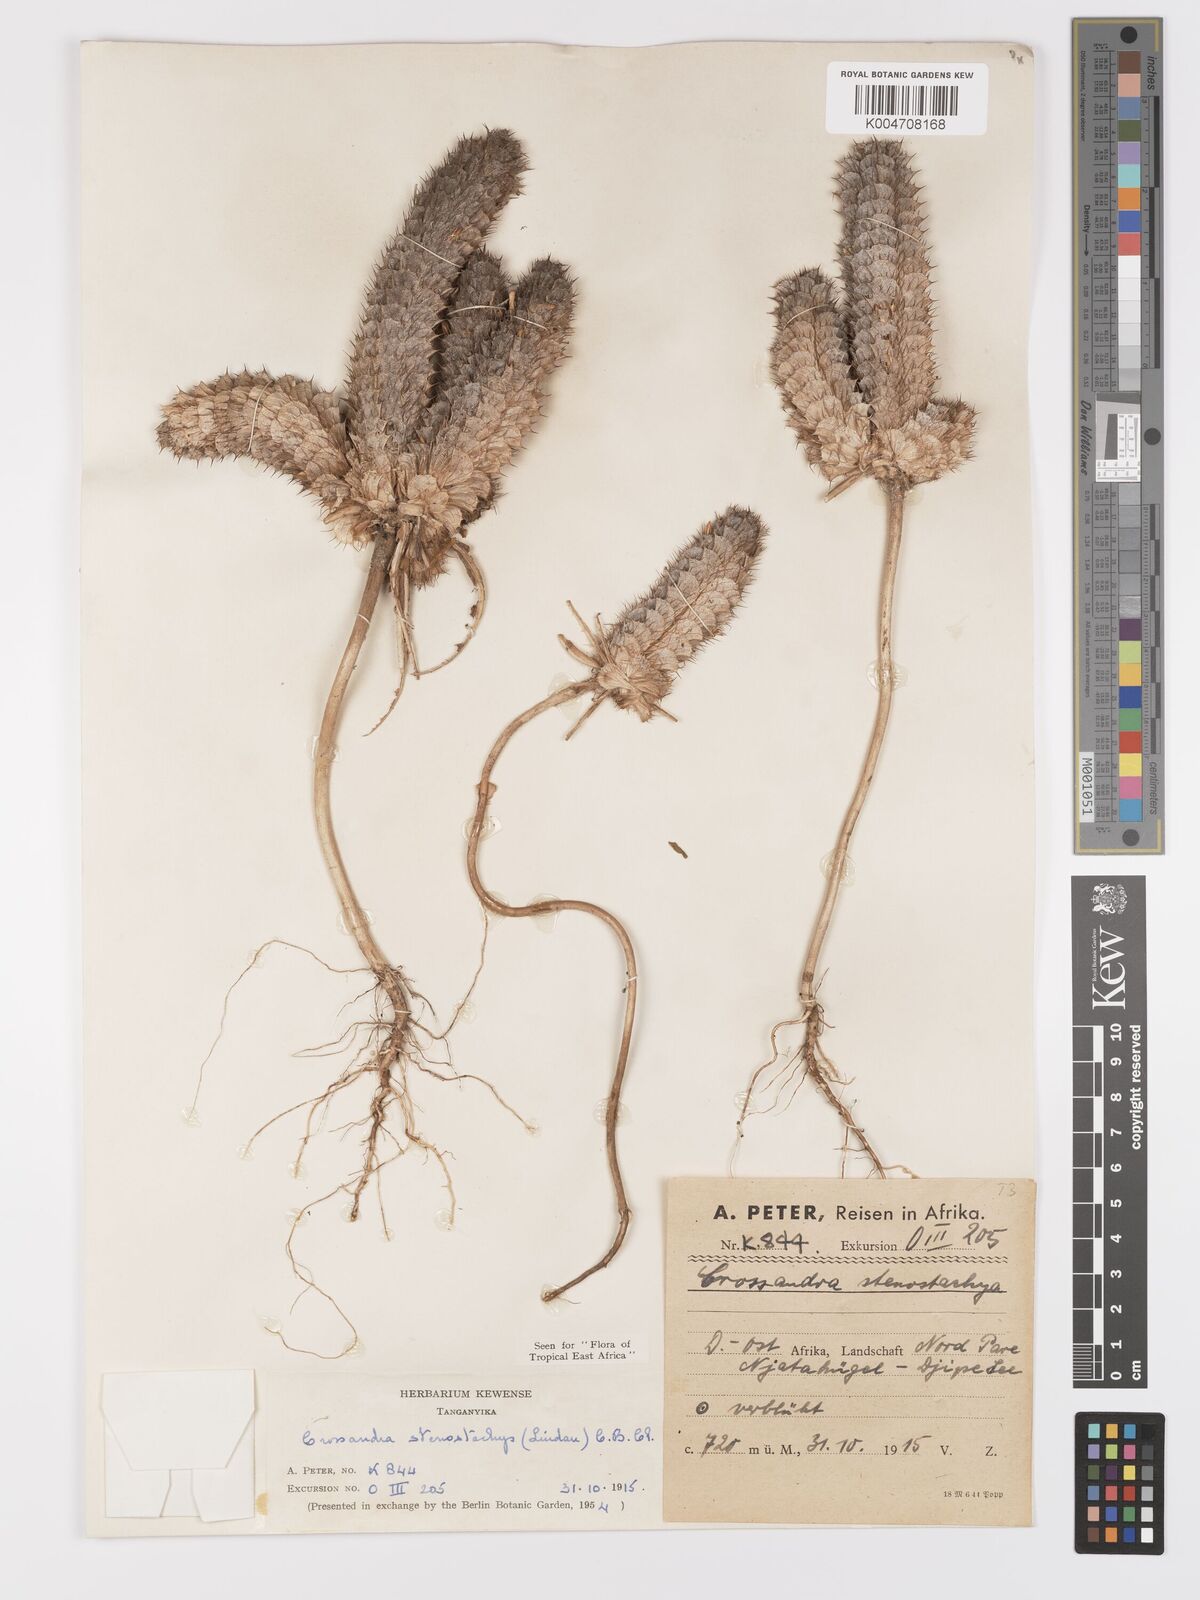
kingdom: Plantae
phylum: Tracheophyta
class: Magnoliopsida
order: Lamiales
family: Acanthaceae
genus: Crossandra
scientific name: Crossandra stenostachya
